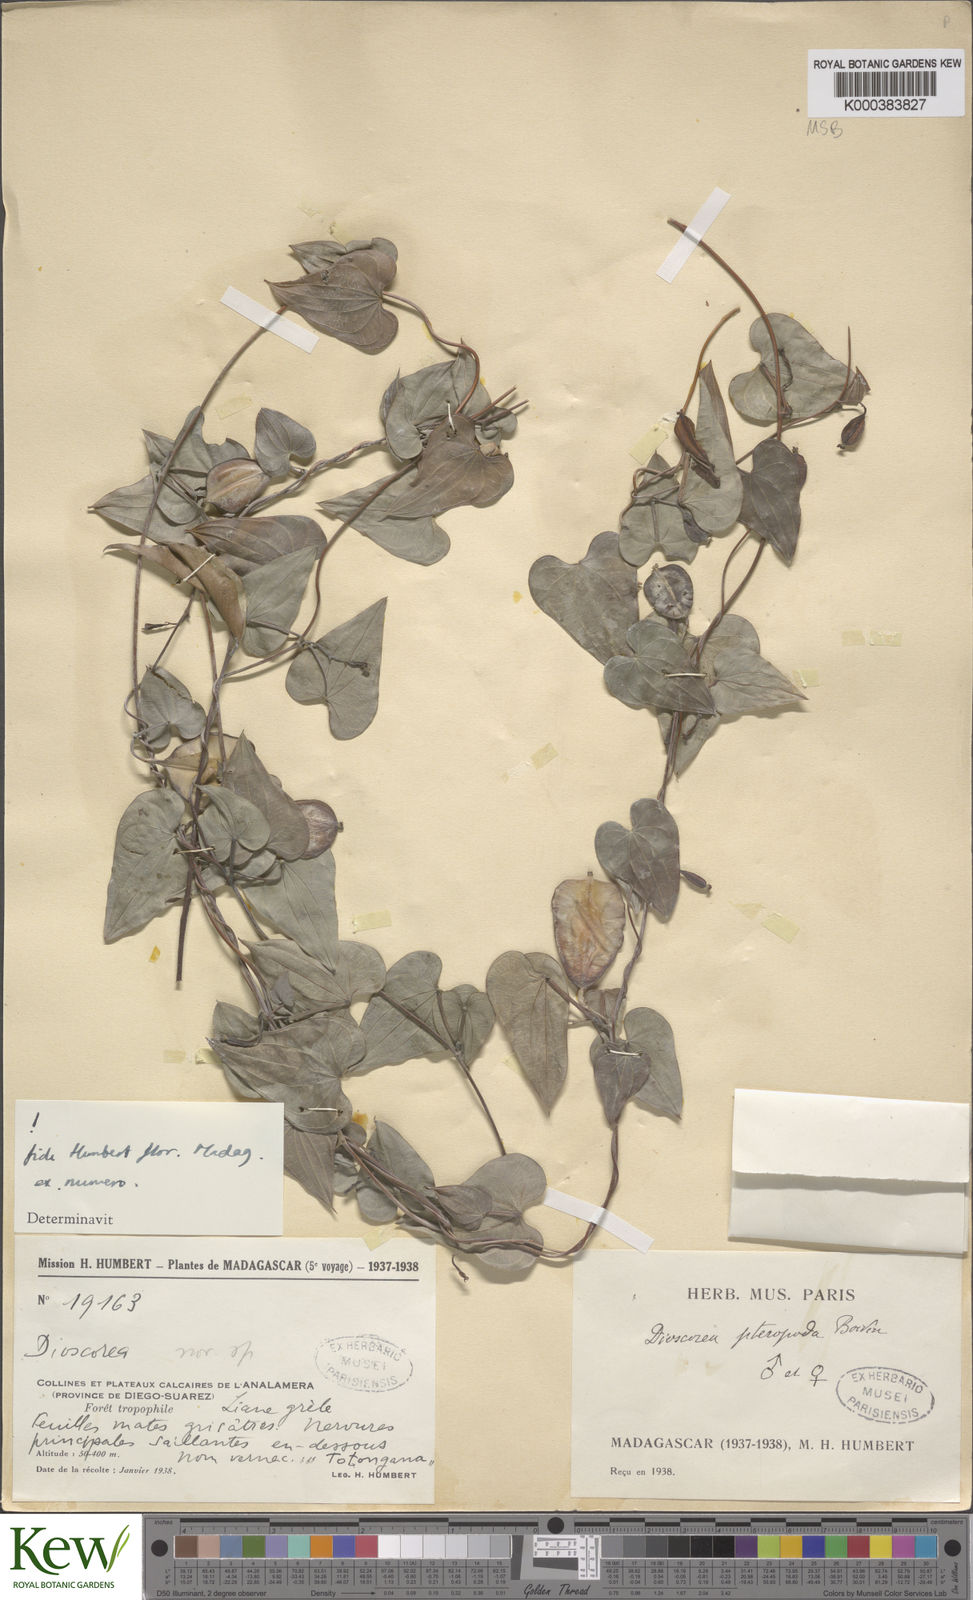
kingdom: Plantae
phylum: Tracheophyta
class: Liliopsida
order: Dioscoreales
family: Dioscoreaceae
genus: Dioscorea
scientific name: Dioscorea
